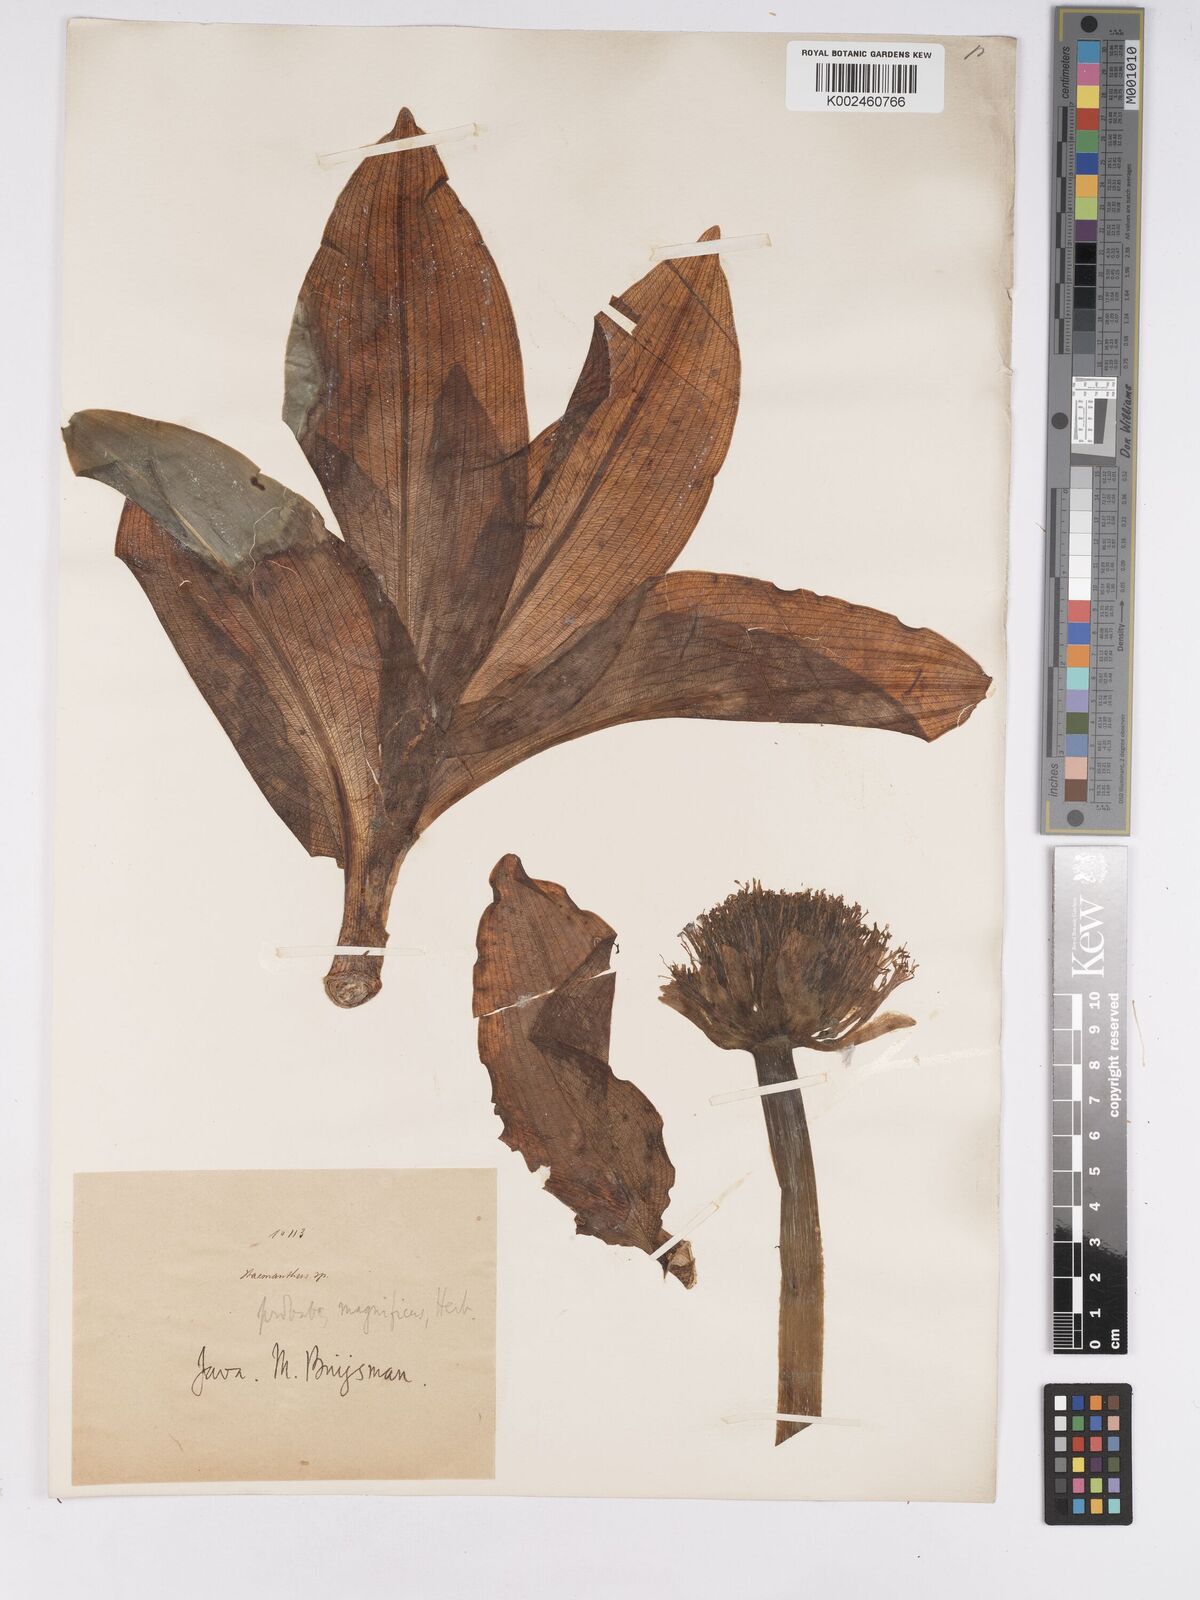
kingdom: Plantae
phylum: Tracheophyta
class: Liliopsida
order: Asparagales
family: Amaryllidaceae
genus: Scadoxus
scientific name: Scadoxus
